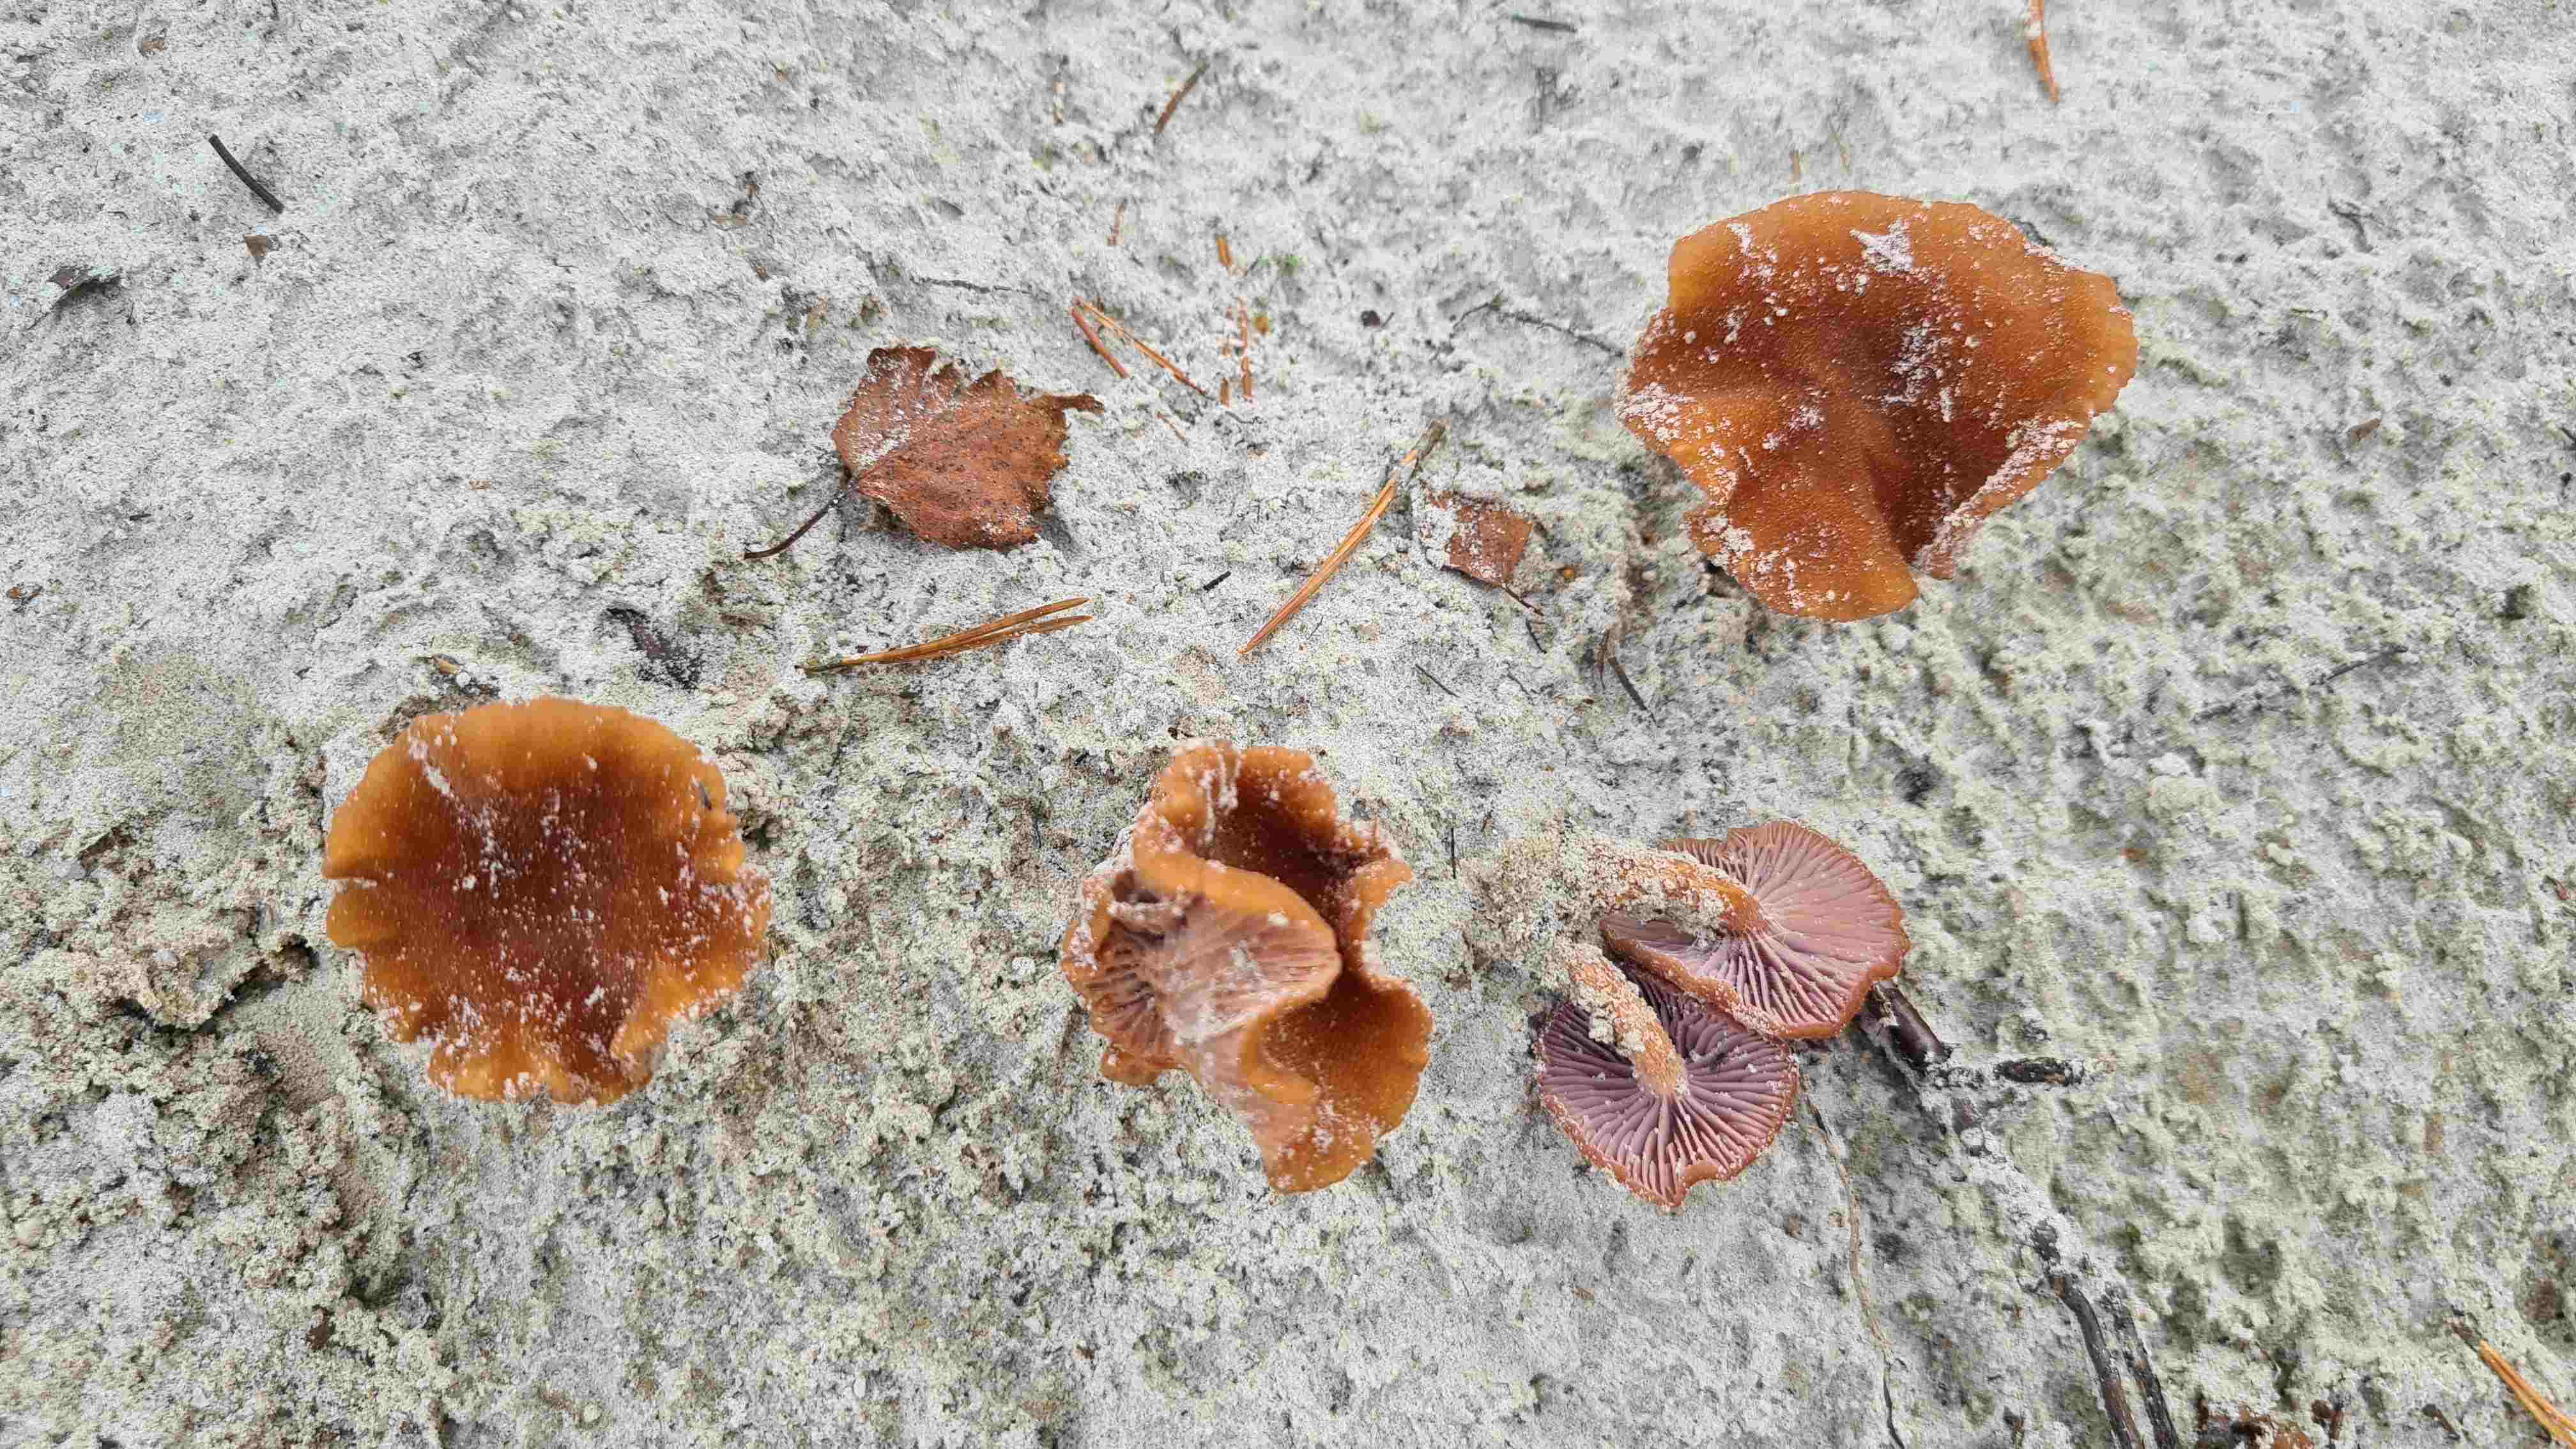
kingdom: Fungi
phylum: Basidiomycota
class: Agaricomycetes
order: Agaricales
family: Hydnangiaceae
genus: Laccaria
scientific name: Laccaria maritima
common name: klit-ametysthat
